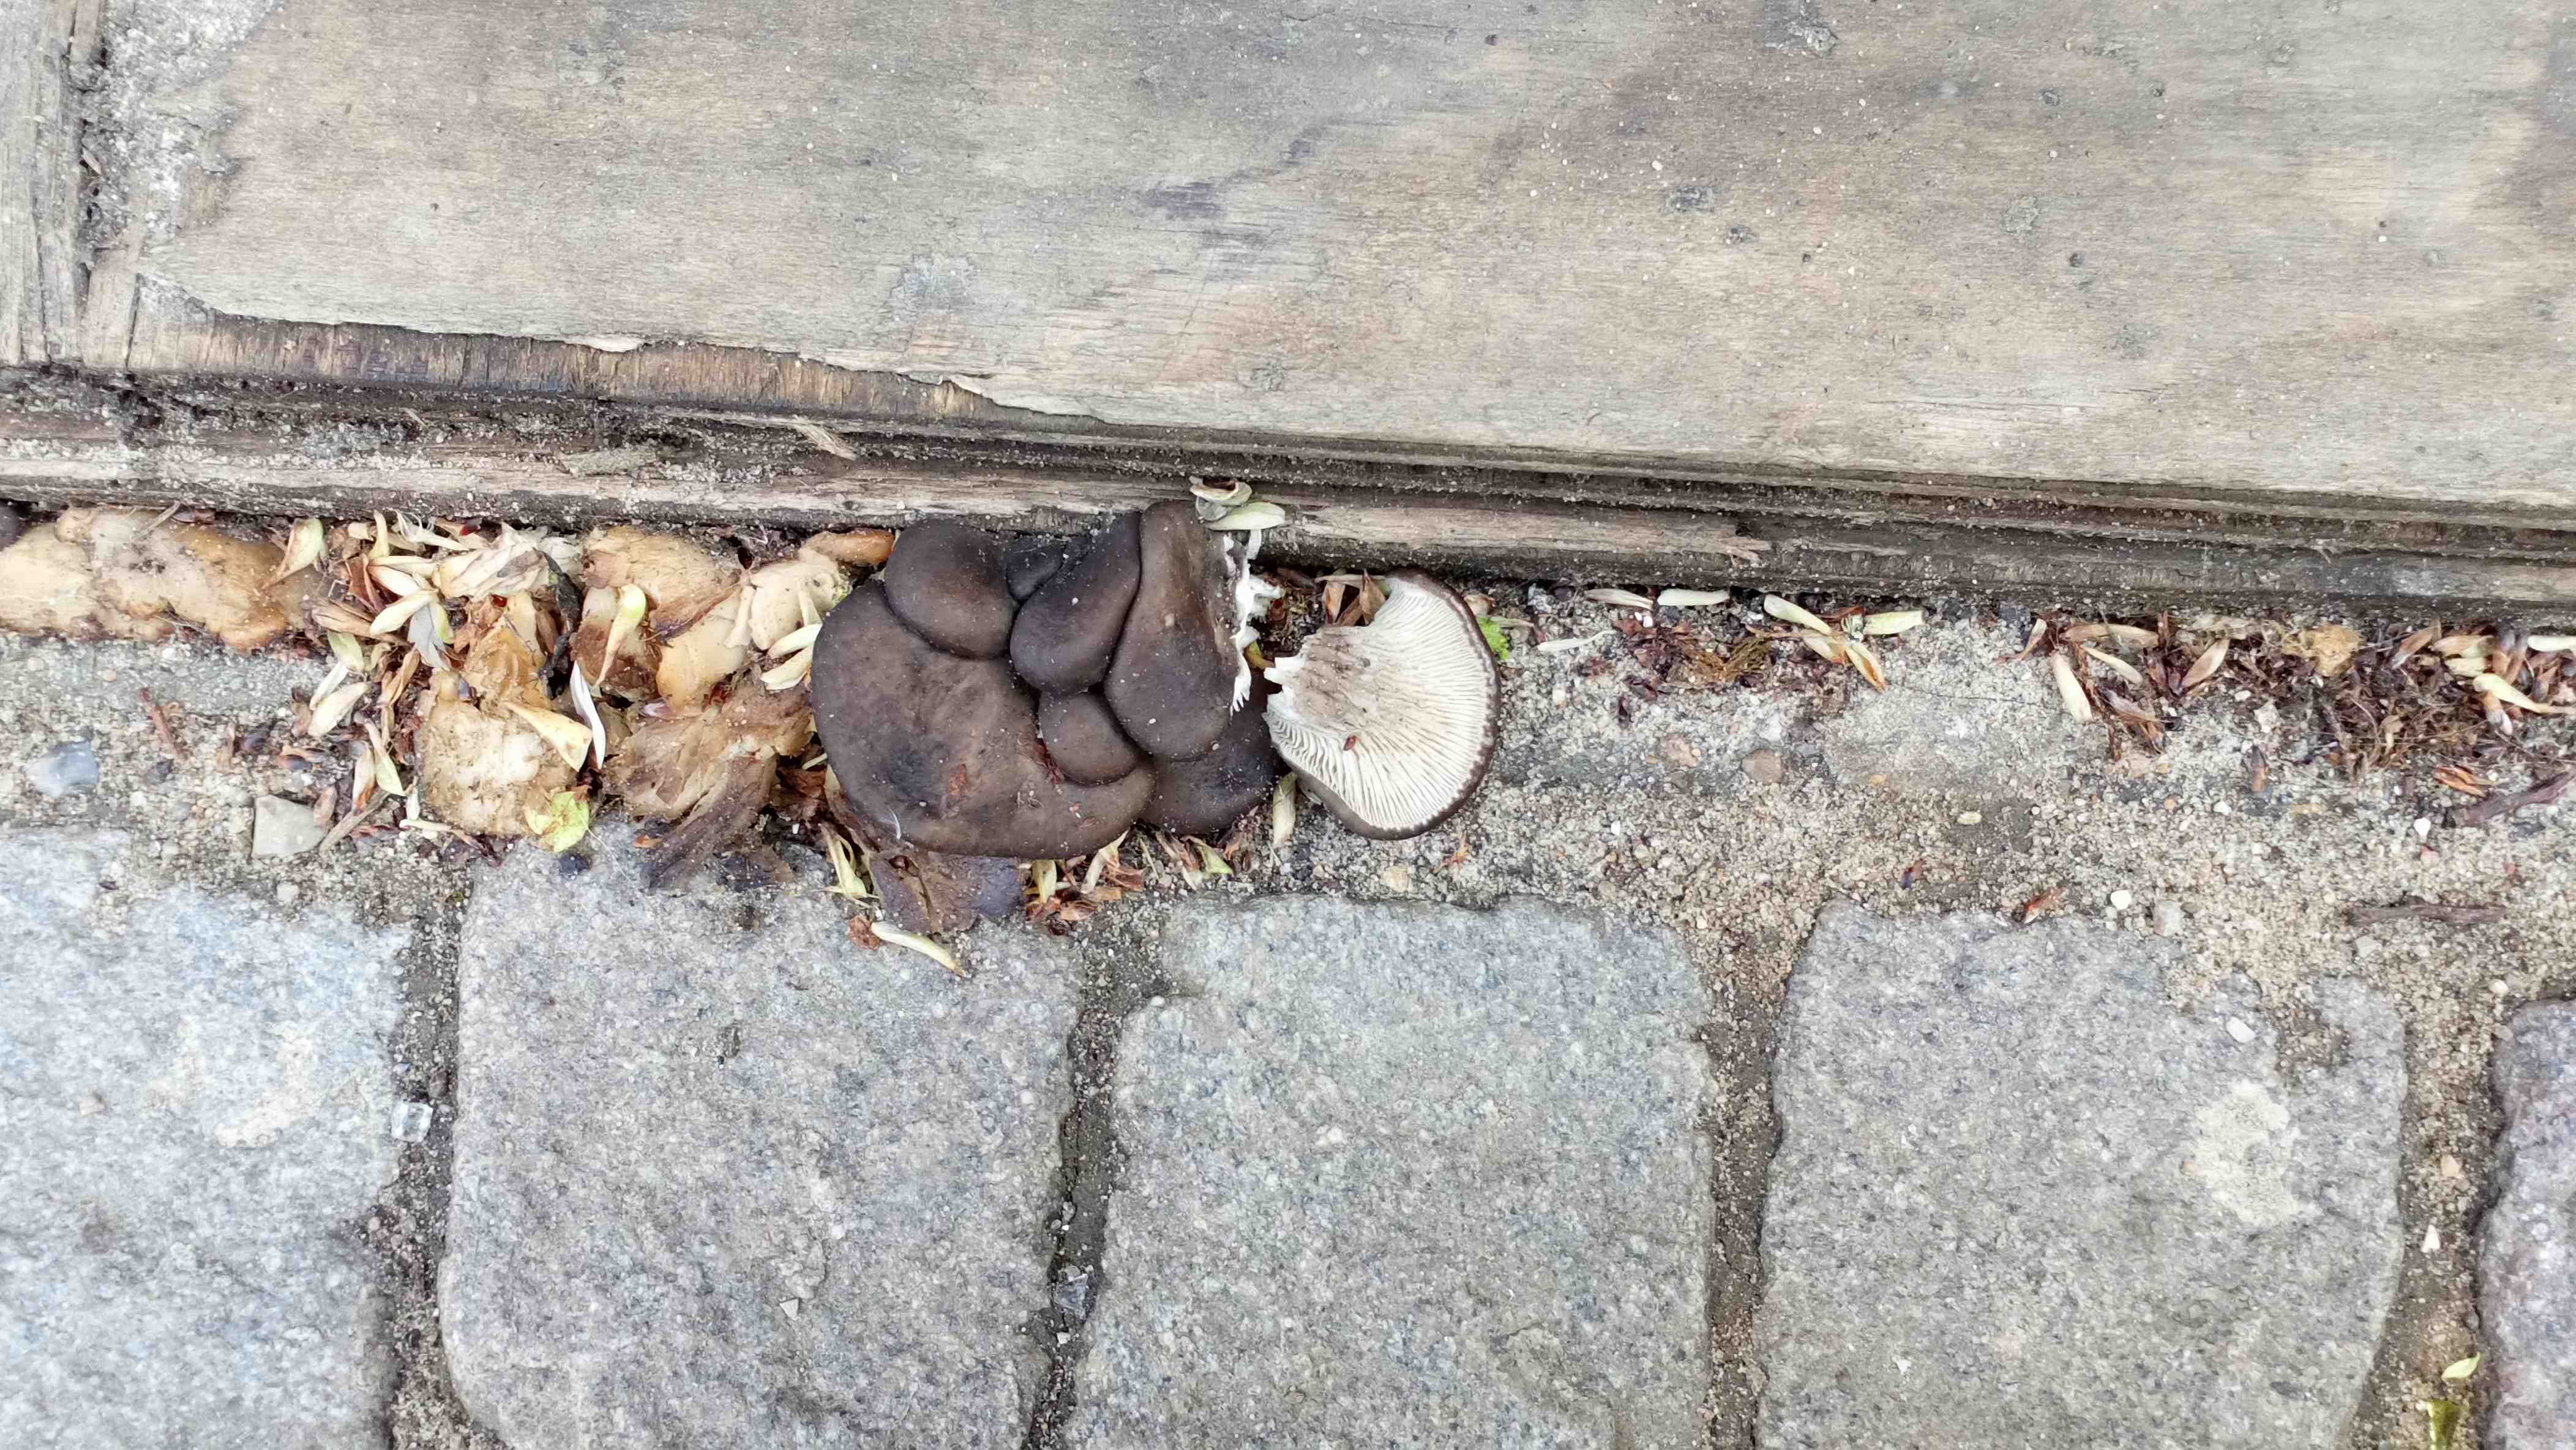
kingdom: Fungi
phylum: Basidiomycota
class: Agaricomycetes
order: Agaricales
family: Pleurotaceae
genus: Pleurotus
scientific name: Pleurotus
